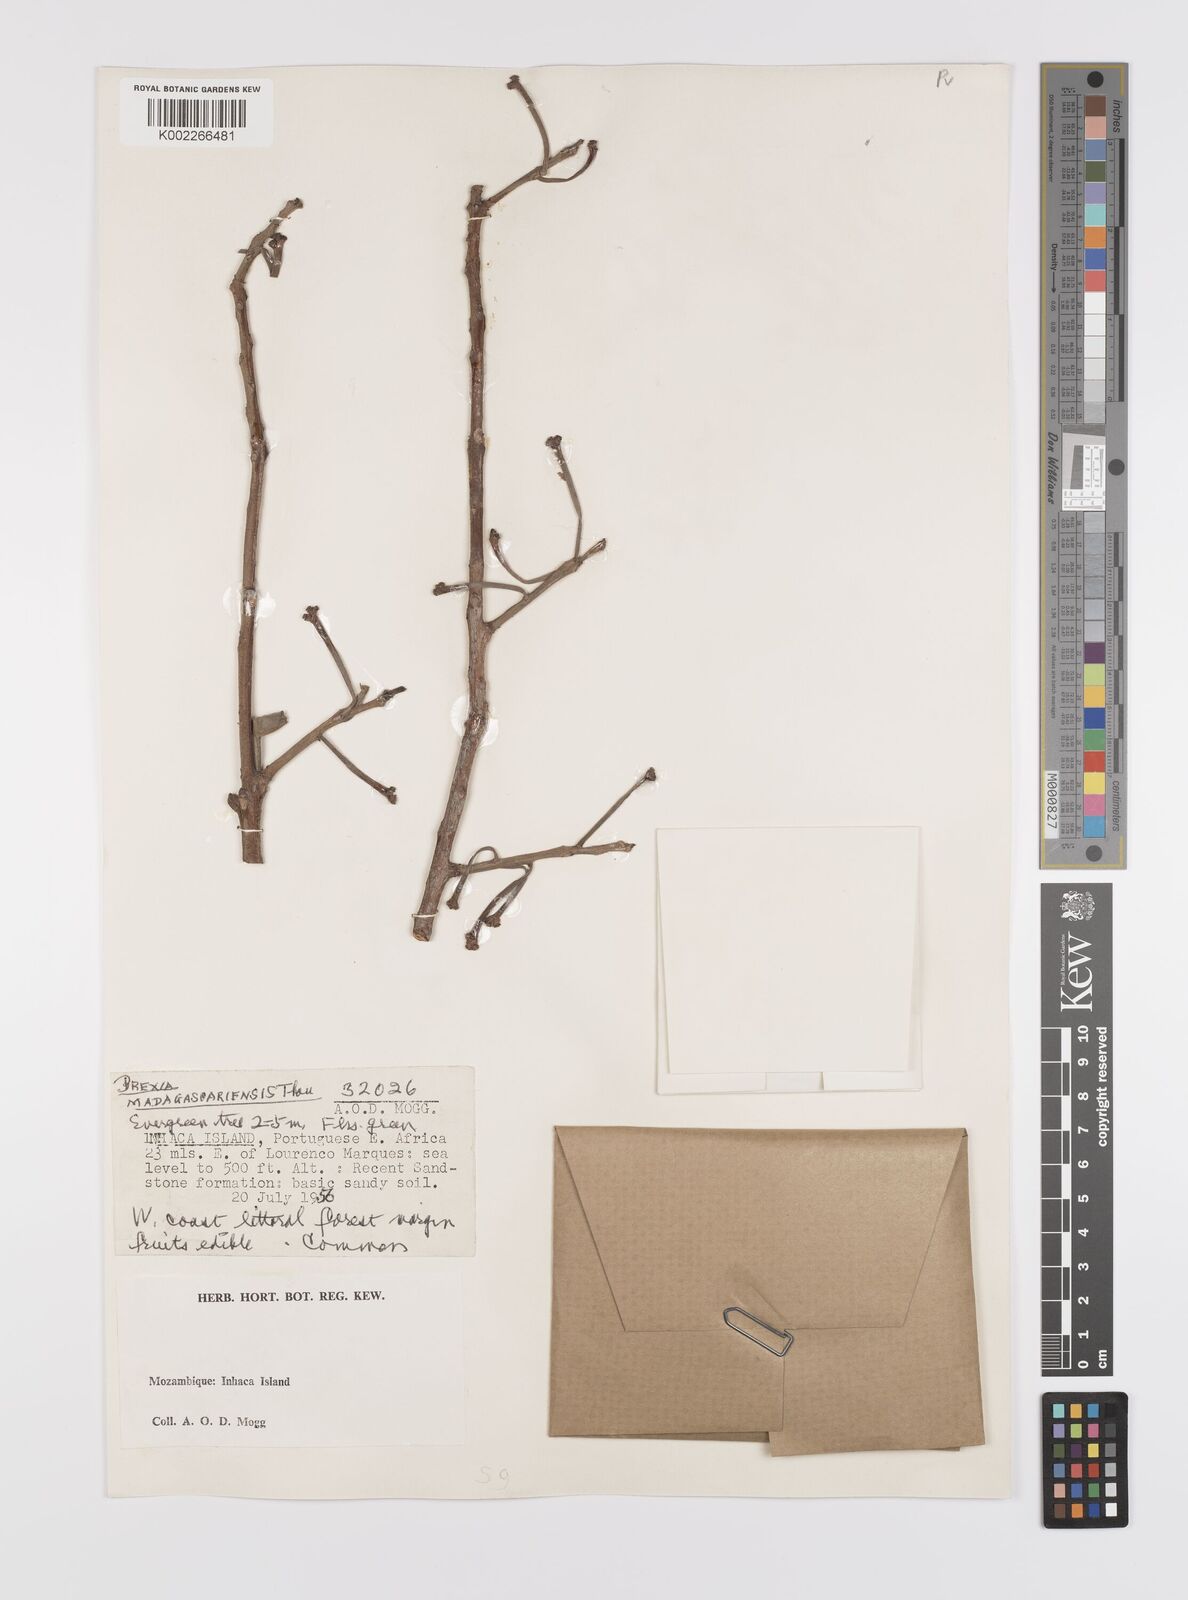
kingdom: Plantae
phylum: Tracheophyta
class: Magnoliopsida
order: Celastrales
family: Celastraceae
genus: Brexia
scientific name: Brexia madagascariensis
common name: Brexia
